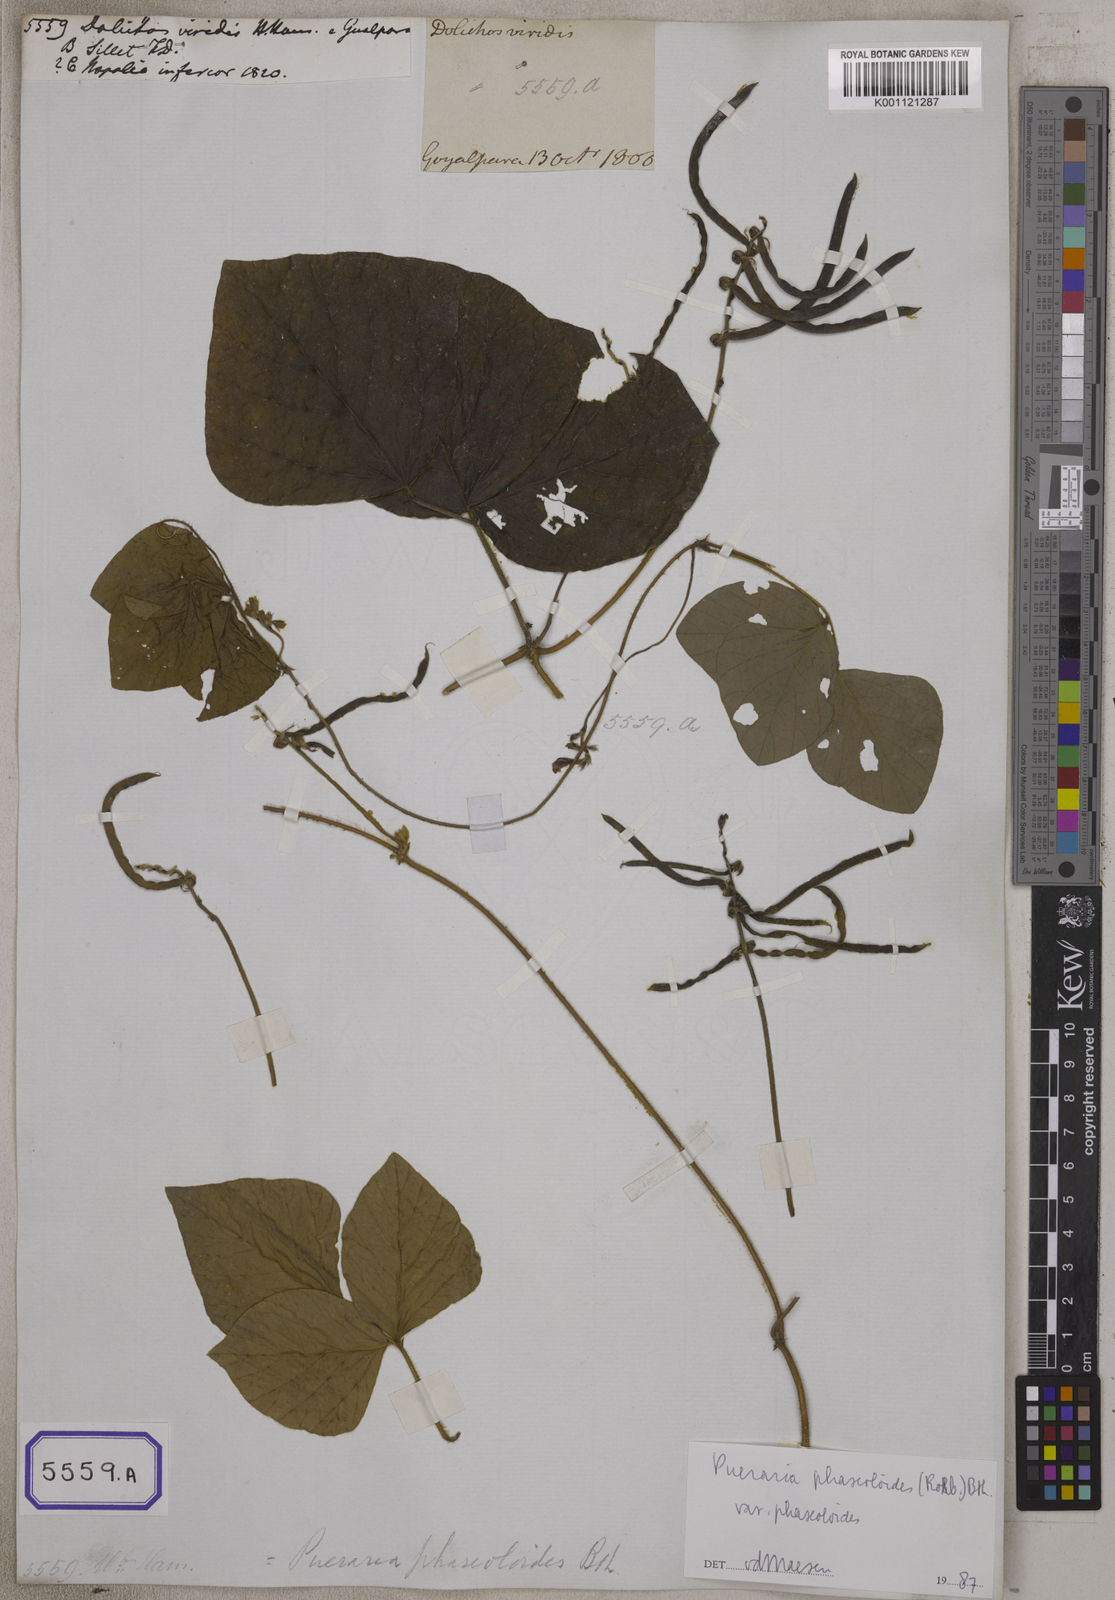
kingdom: Plantae
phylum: Tracheophyta
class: Magnoliopsida
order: Fabales
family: Fabaceae
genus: Neustanthus
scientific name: Neustanthus phaseoloides
